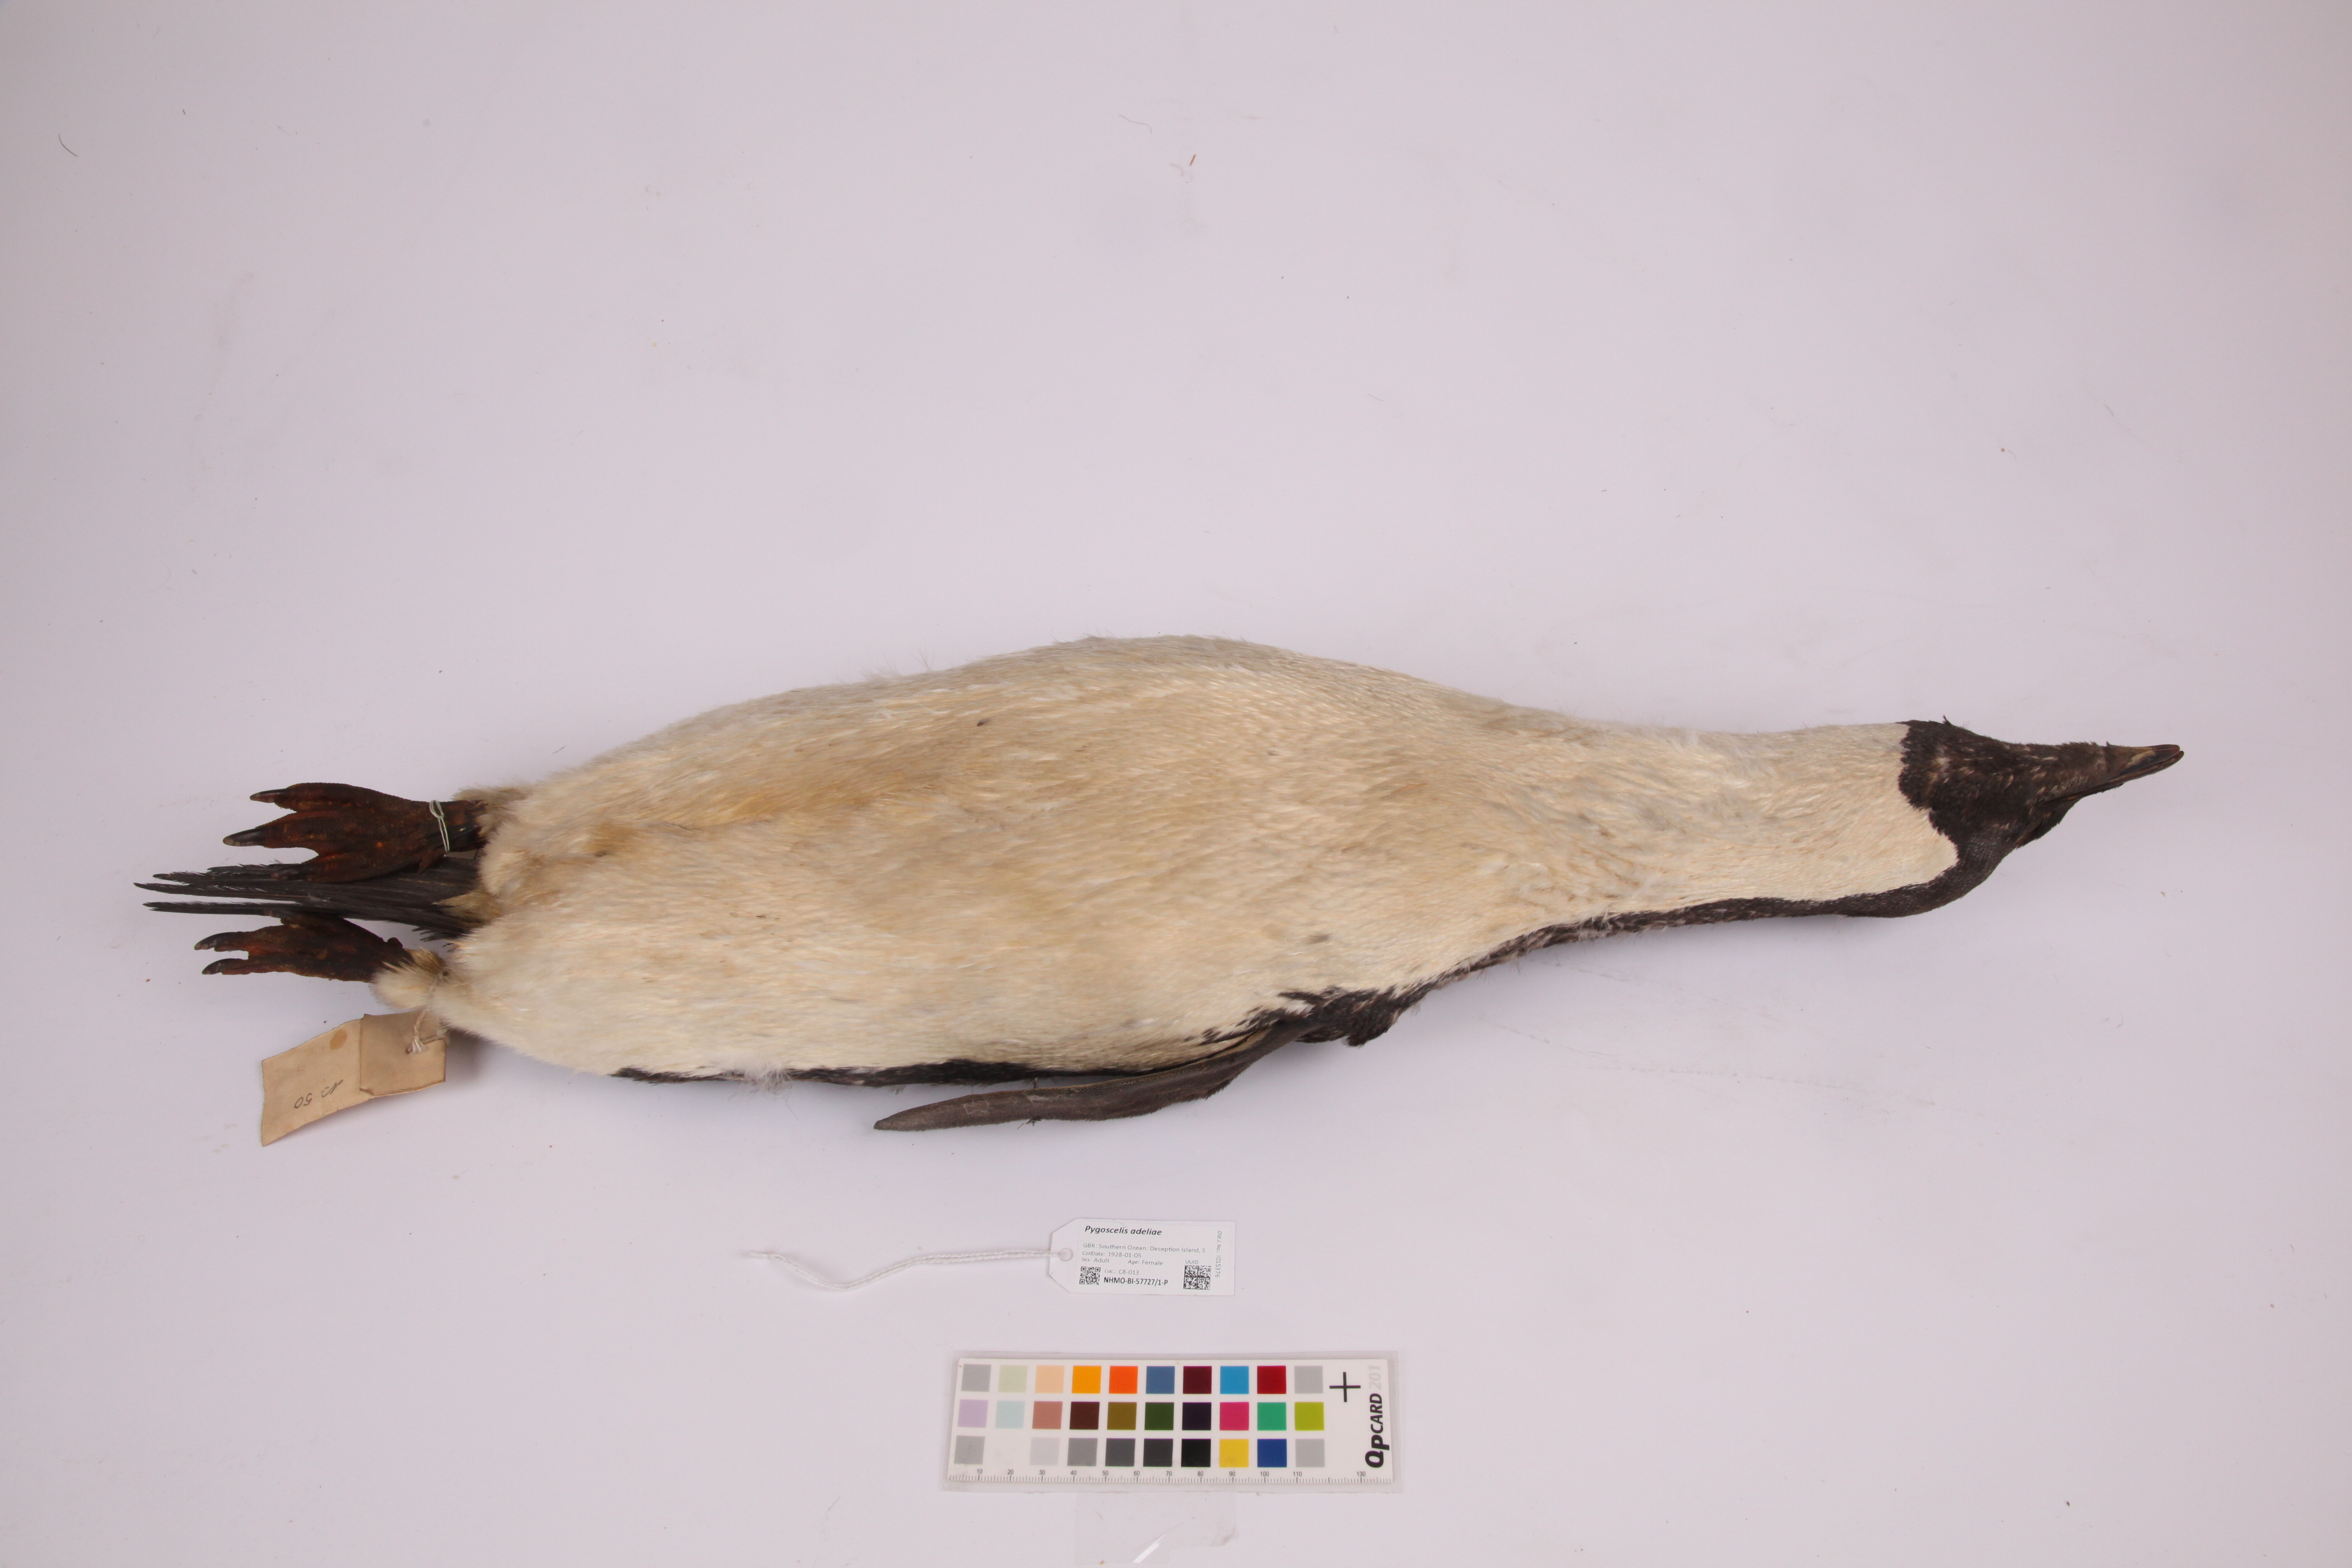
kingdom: Animalia
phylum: Chordata
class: Aves
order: Sphenisciformes
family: Spheniscidae
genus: Pygoscelis
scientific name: Pygoscelis adeliae
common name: Adelie penguin
